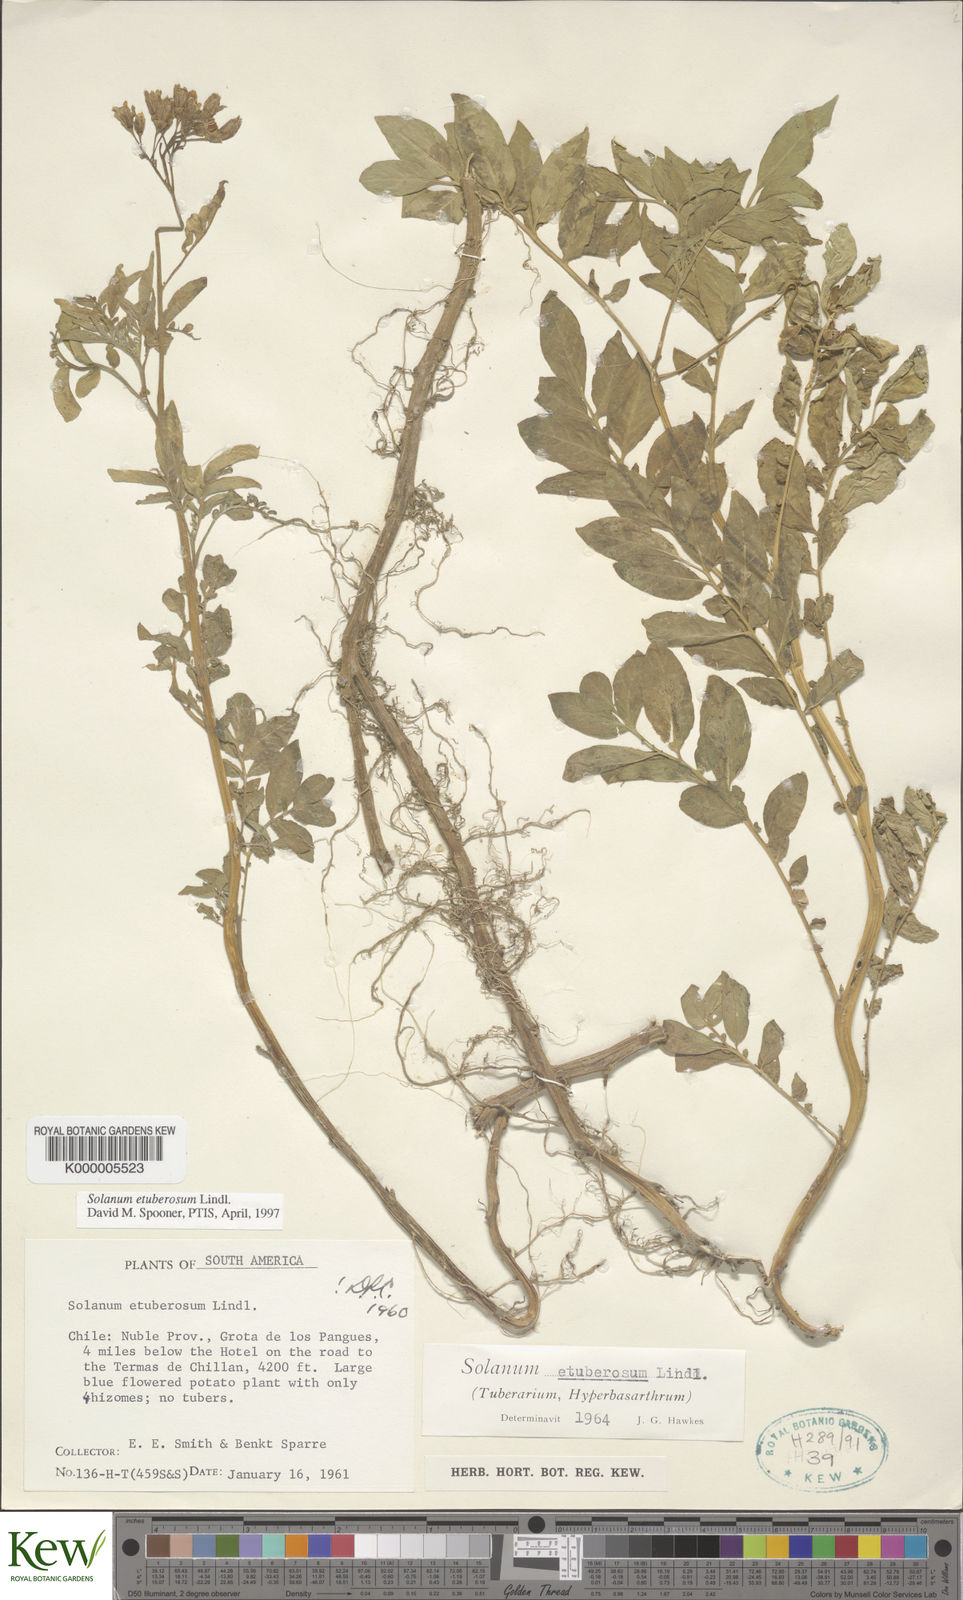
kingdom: Plantae
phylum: Tracheophyta
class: Magnoliopsida
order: Solanales
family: Solanaceae
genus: Solanum
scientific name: Solanum etuberosum
